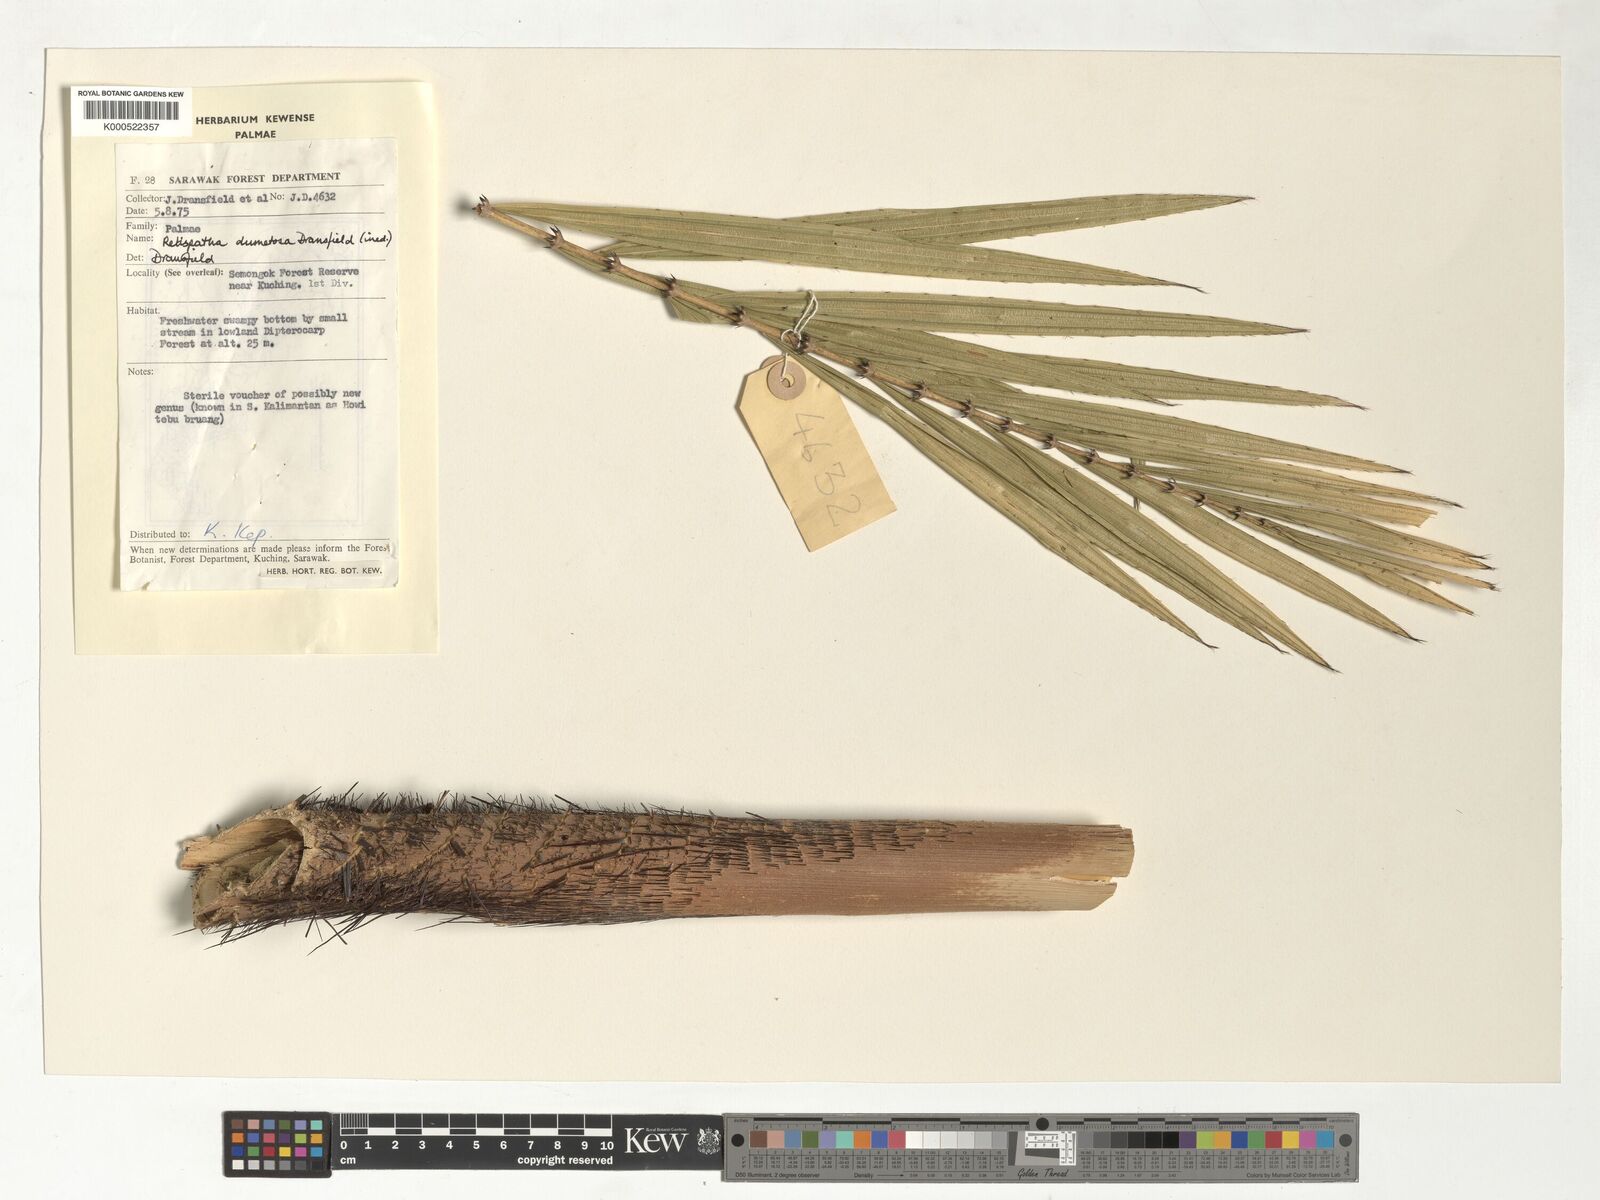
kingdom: Plantae
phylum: Tracheophyta
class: Liliopsida
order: Arecales
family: Arecaceae
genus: Calamus
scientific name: Calamus dumetosus
